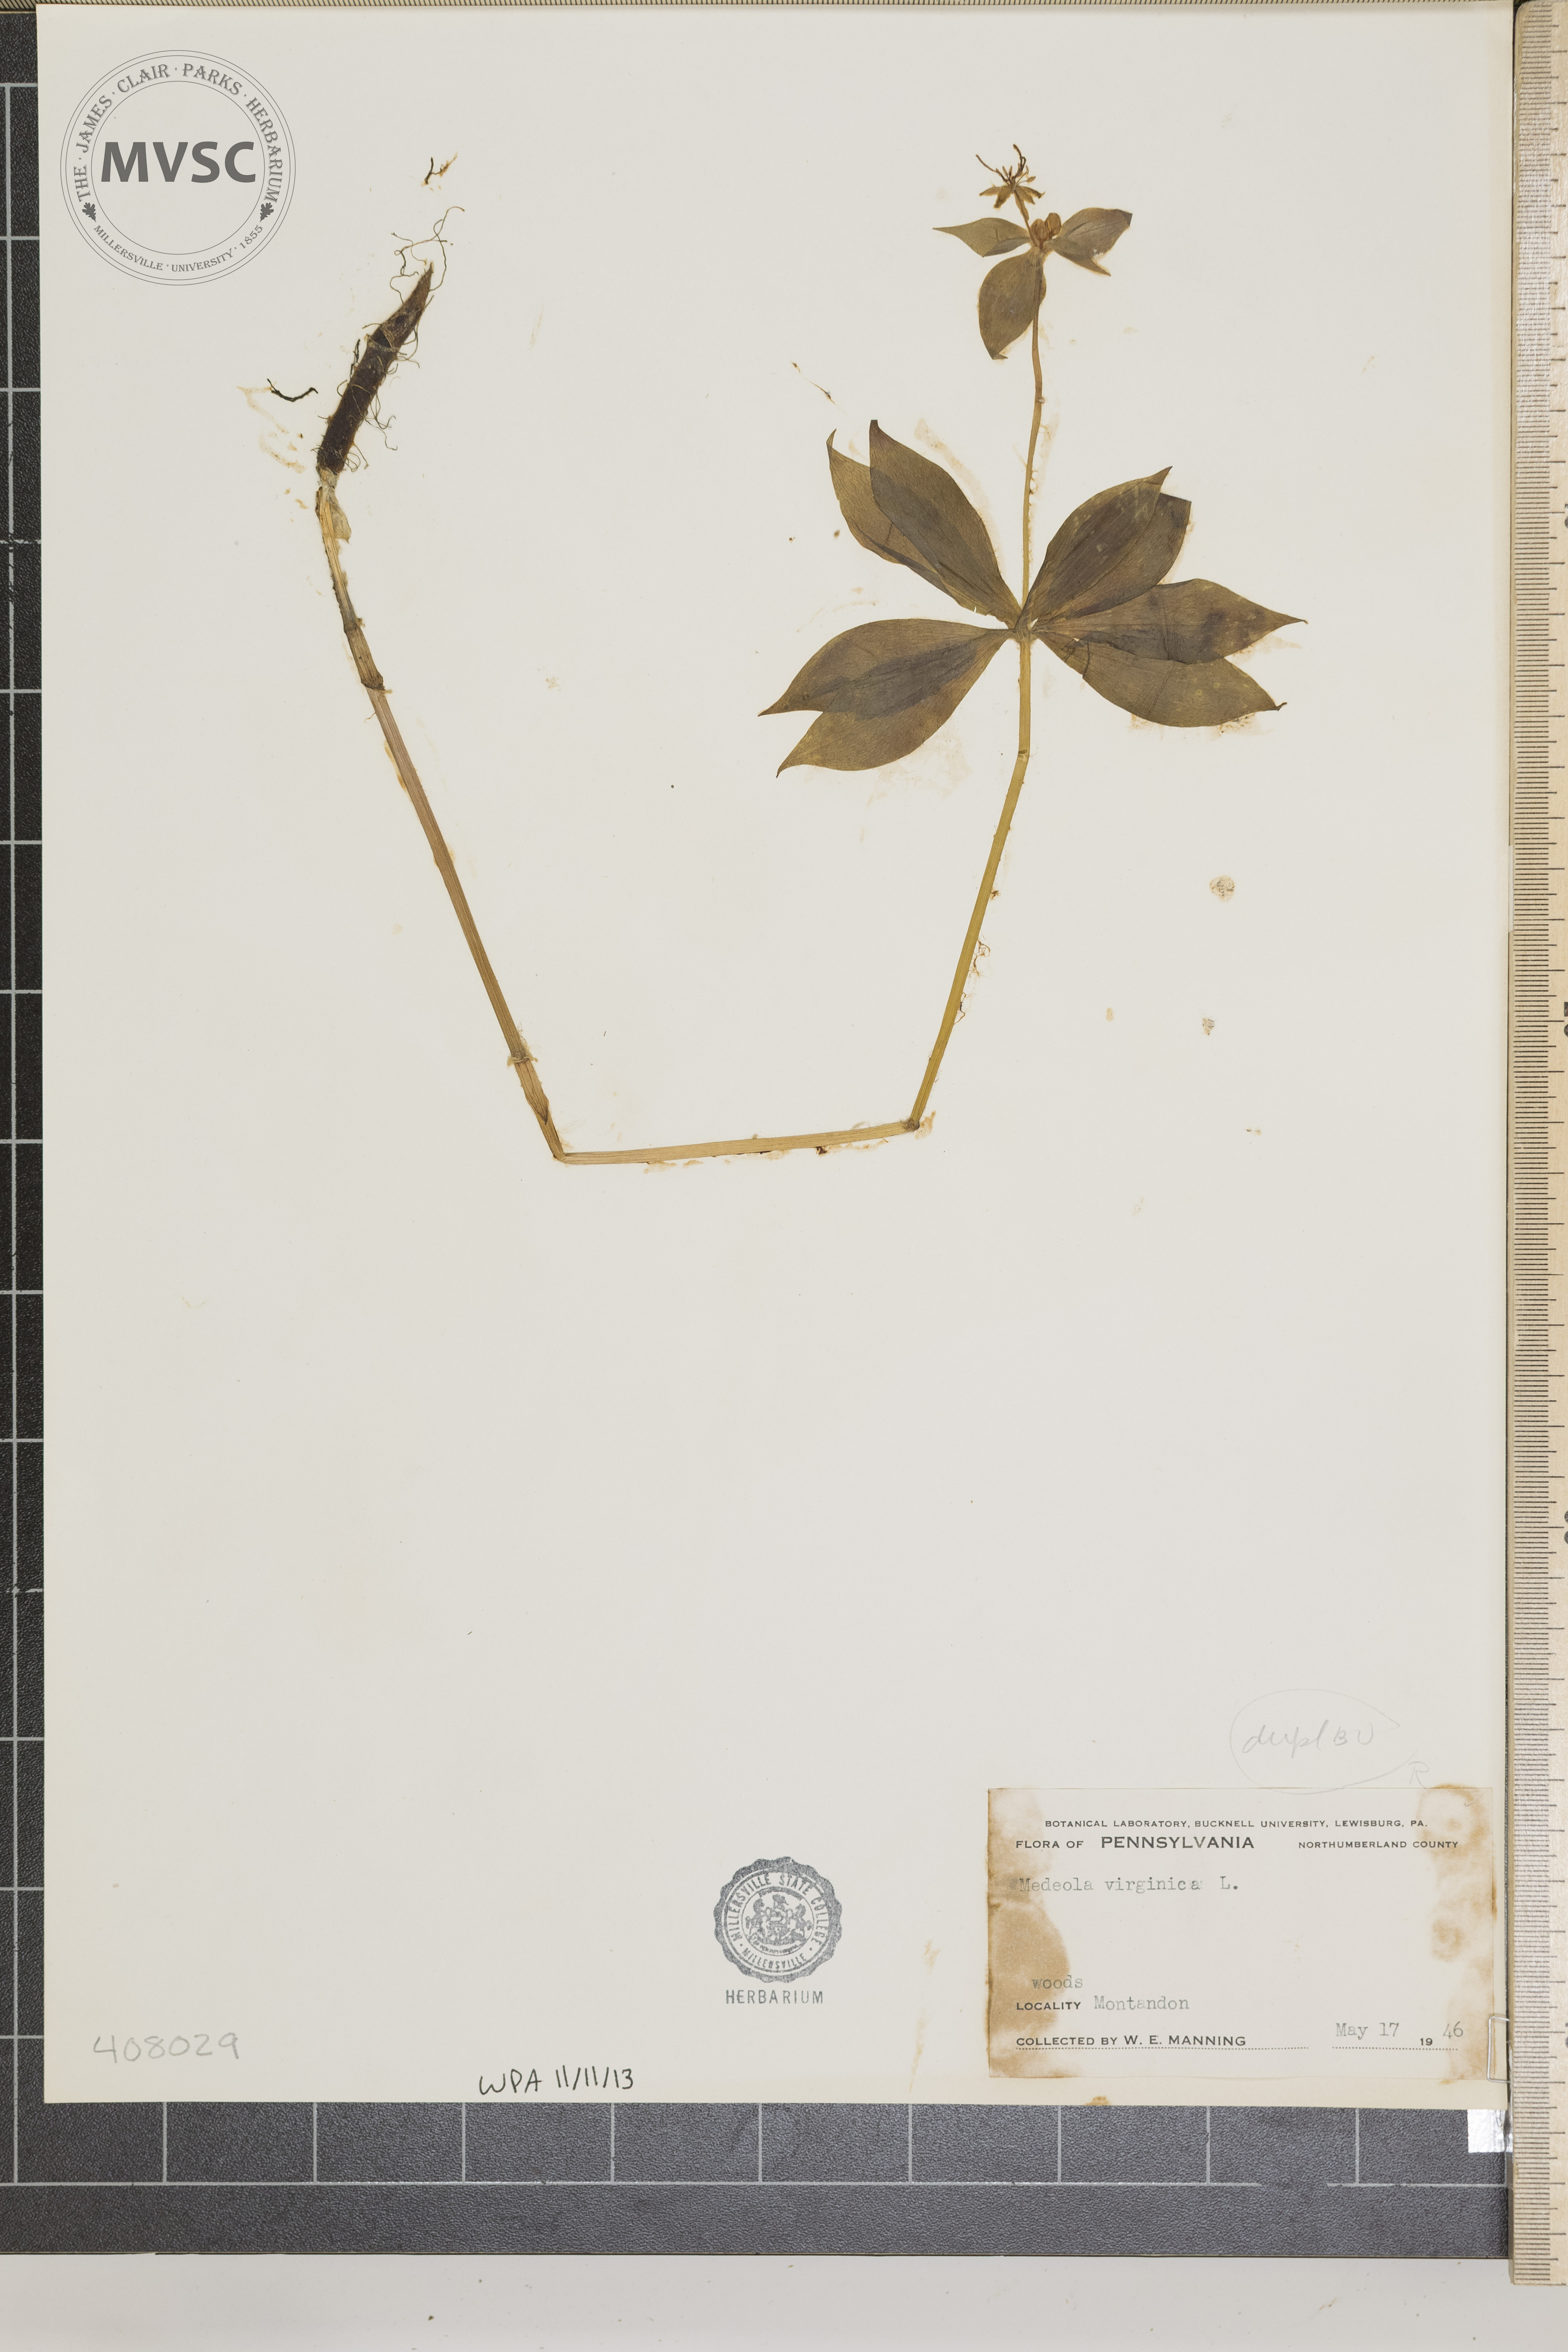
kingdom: Plantae
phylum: Tracheophyta
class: Liliopsida
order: Liliales
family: Liliaceae
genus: Medeola
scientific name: Medeola virginiana
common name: Indian cucumber-root
